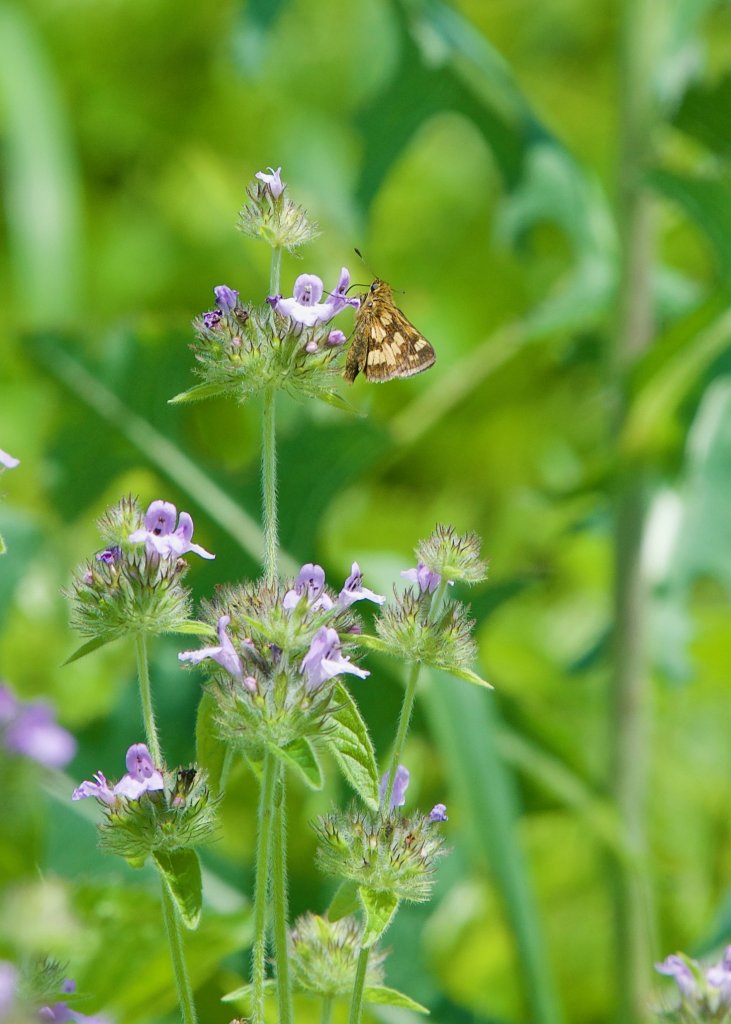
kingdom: Animalia
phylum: Arthropoda
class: Insecta
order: Lepidoptera
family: Hesperiidae
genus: Polites
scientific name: Polites coras
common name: Peck's Skipper
